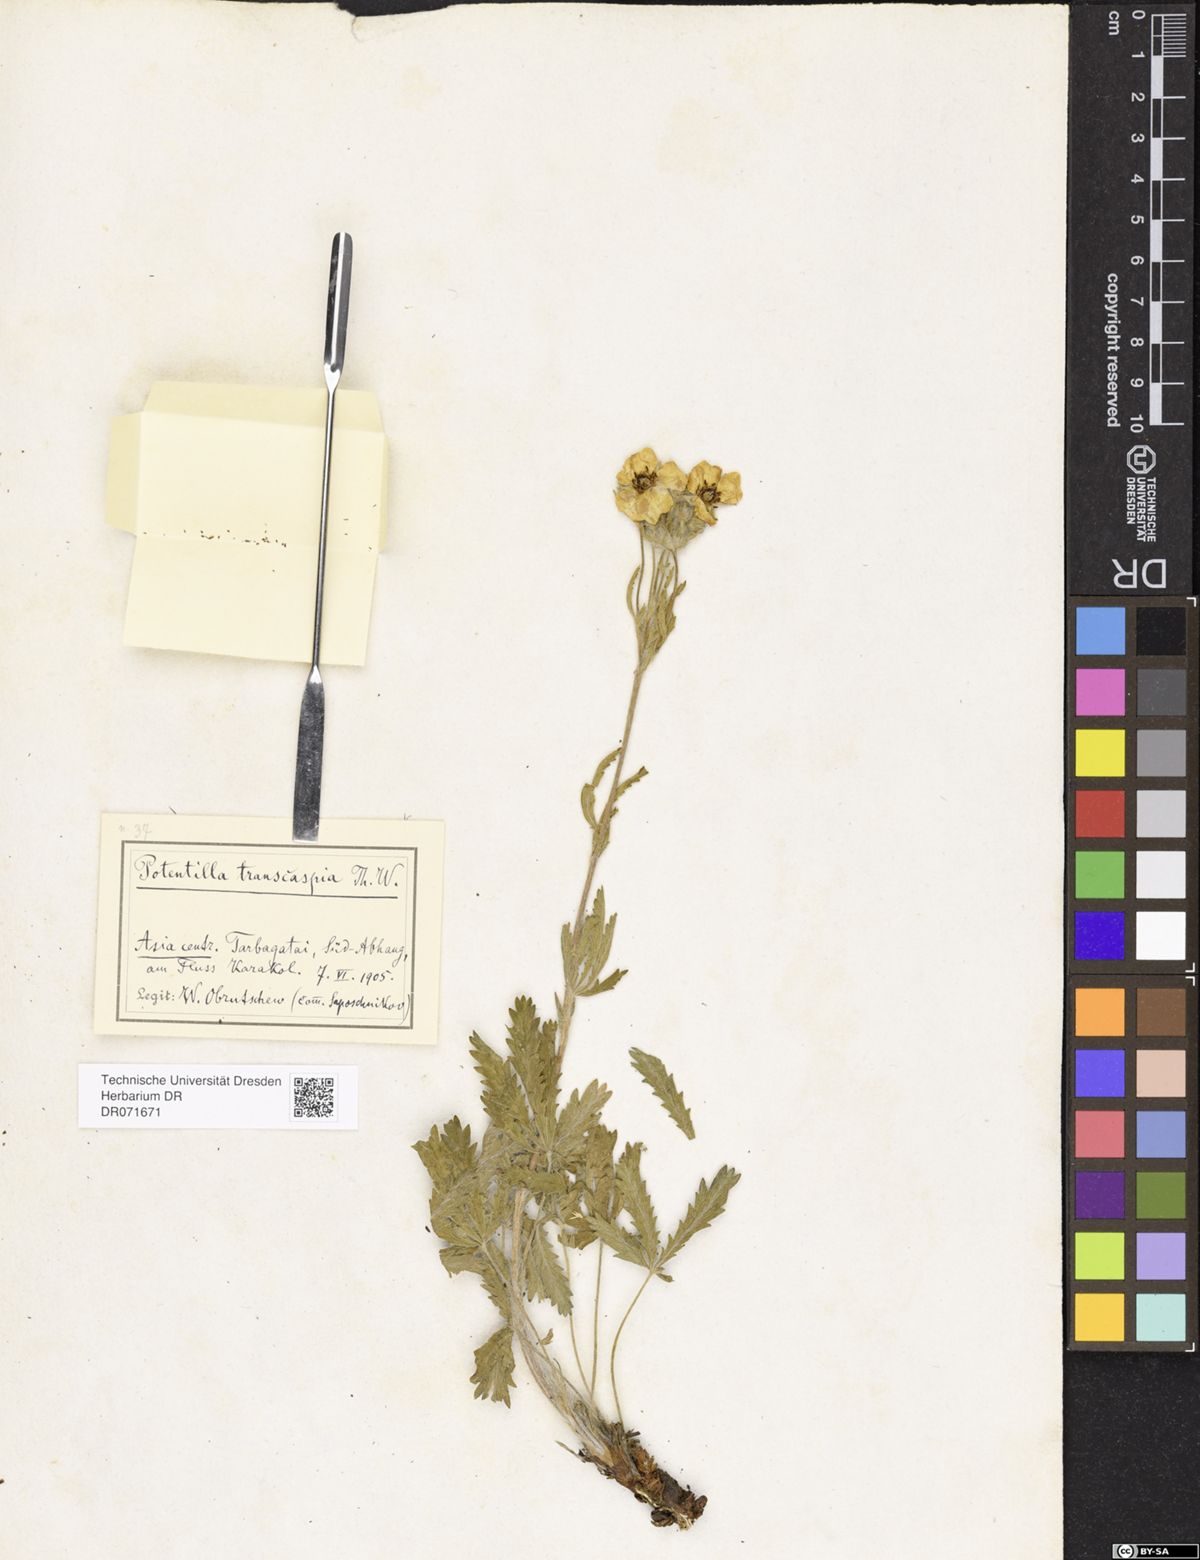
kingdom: Plantae
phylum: Tracheophyta
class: Magnoliopsida
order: Rosales
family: Rosaceae
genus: Potentilla
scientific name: Potentilla pedata
